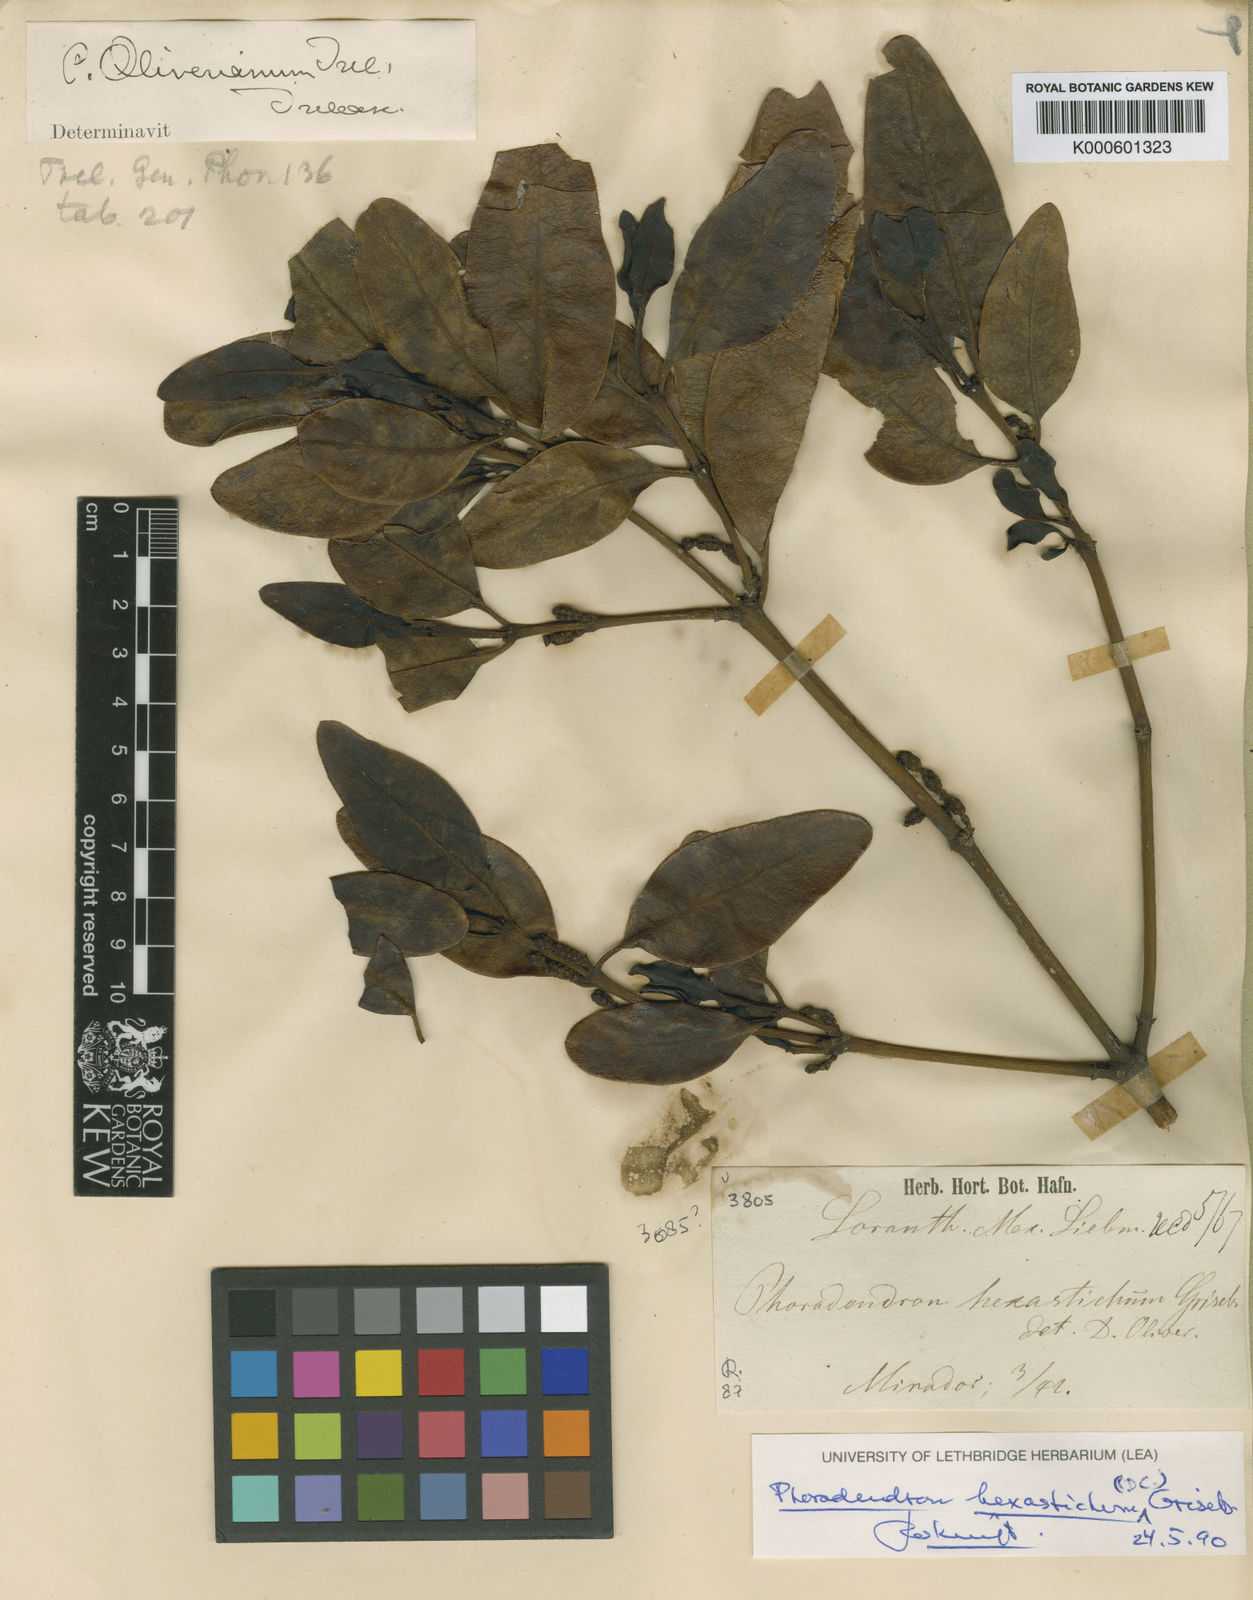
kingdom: Plantae
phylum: Tracheophyta
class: Magnoliopsida
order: Santalales
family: Viscaceae
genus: Phoradendron
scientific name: Phoradendron hexastichum
